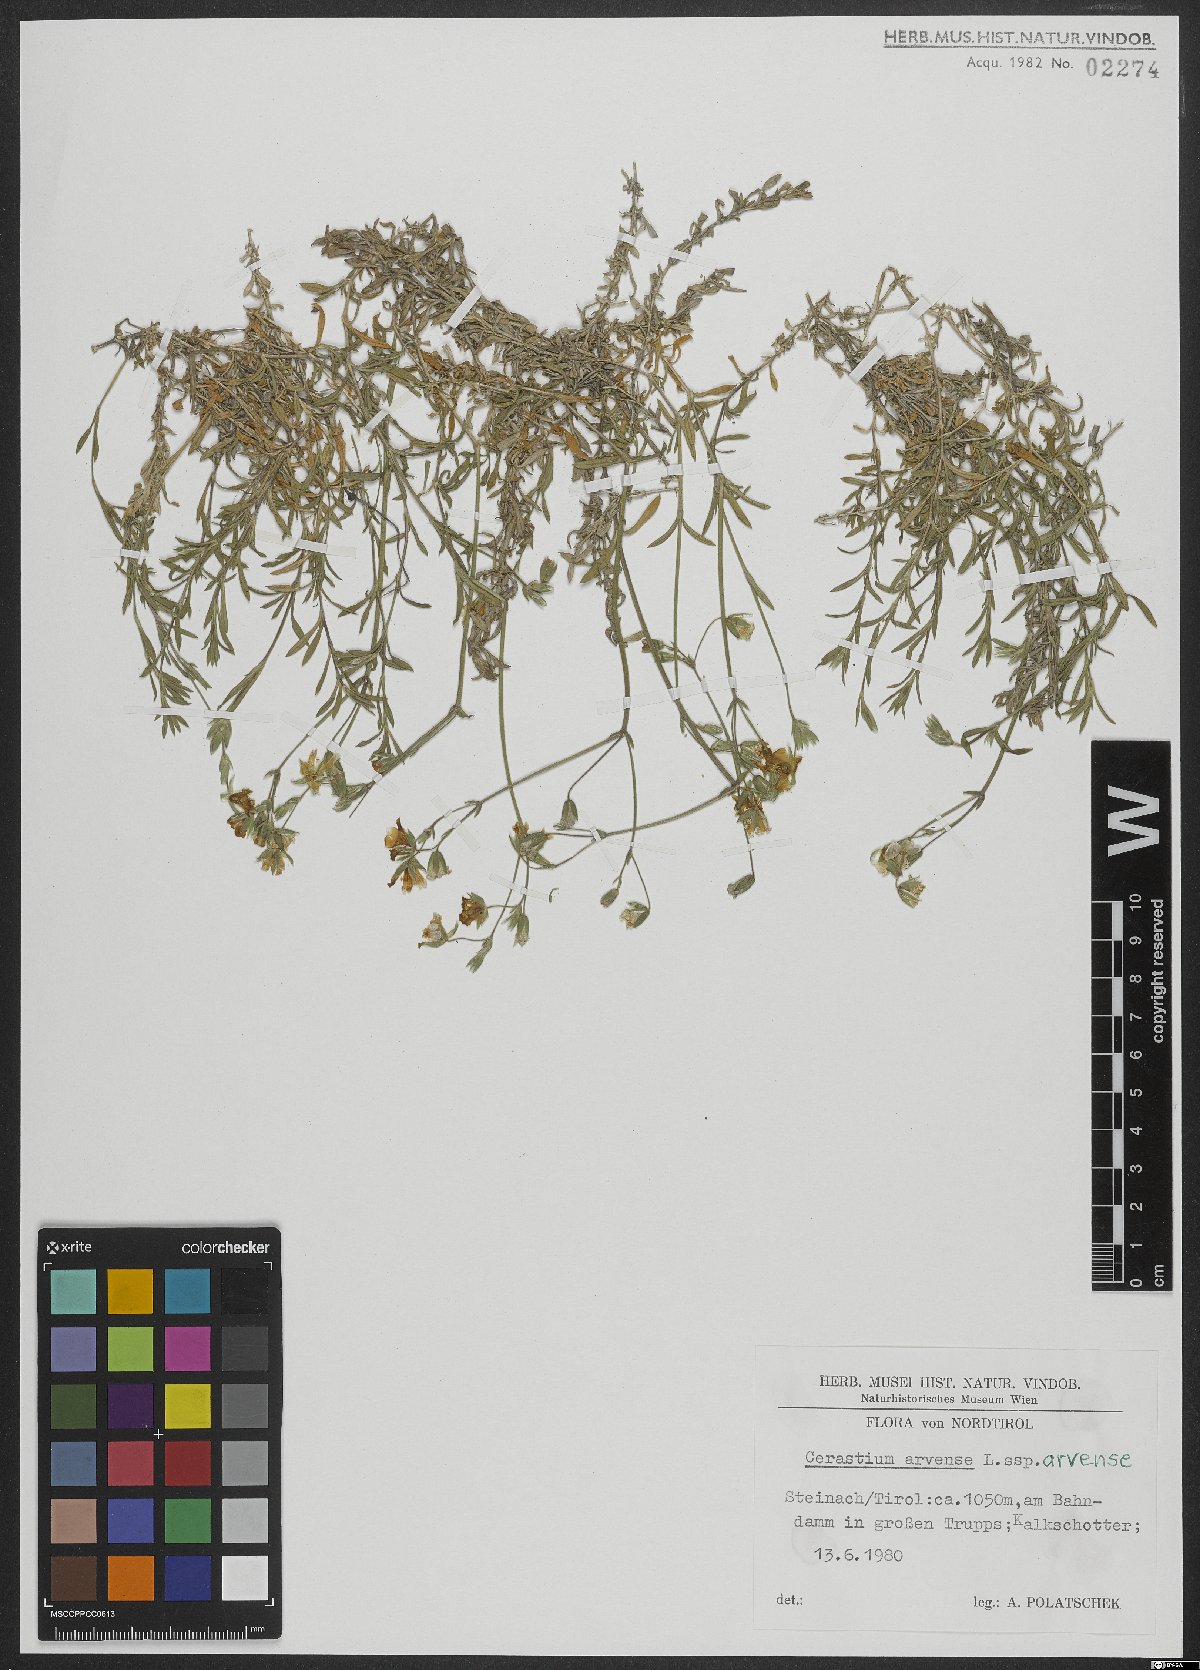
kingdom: Plantae
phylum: Tracheophyta
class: Magnoliopsida
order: Caryophyllales
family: Caryophyllaceae
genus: Cerastium
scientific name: Cerastium arvense
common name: Field mouse-ear
